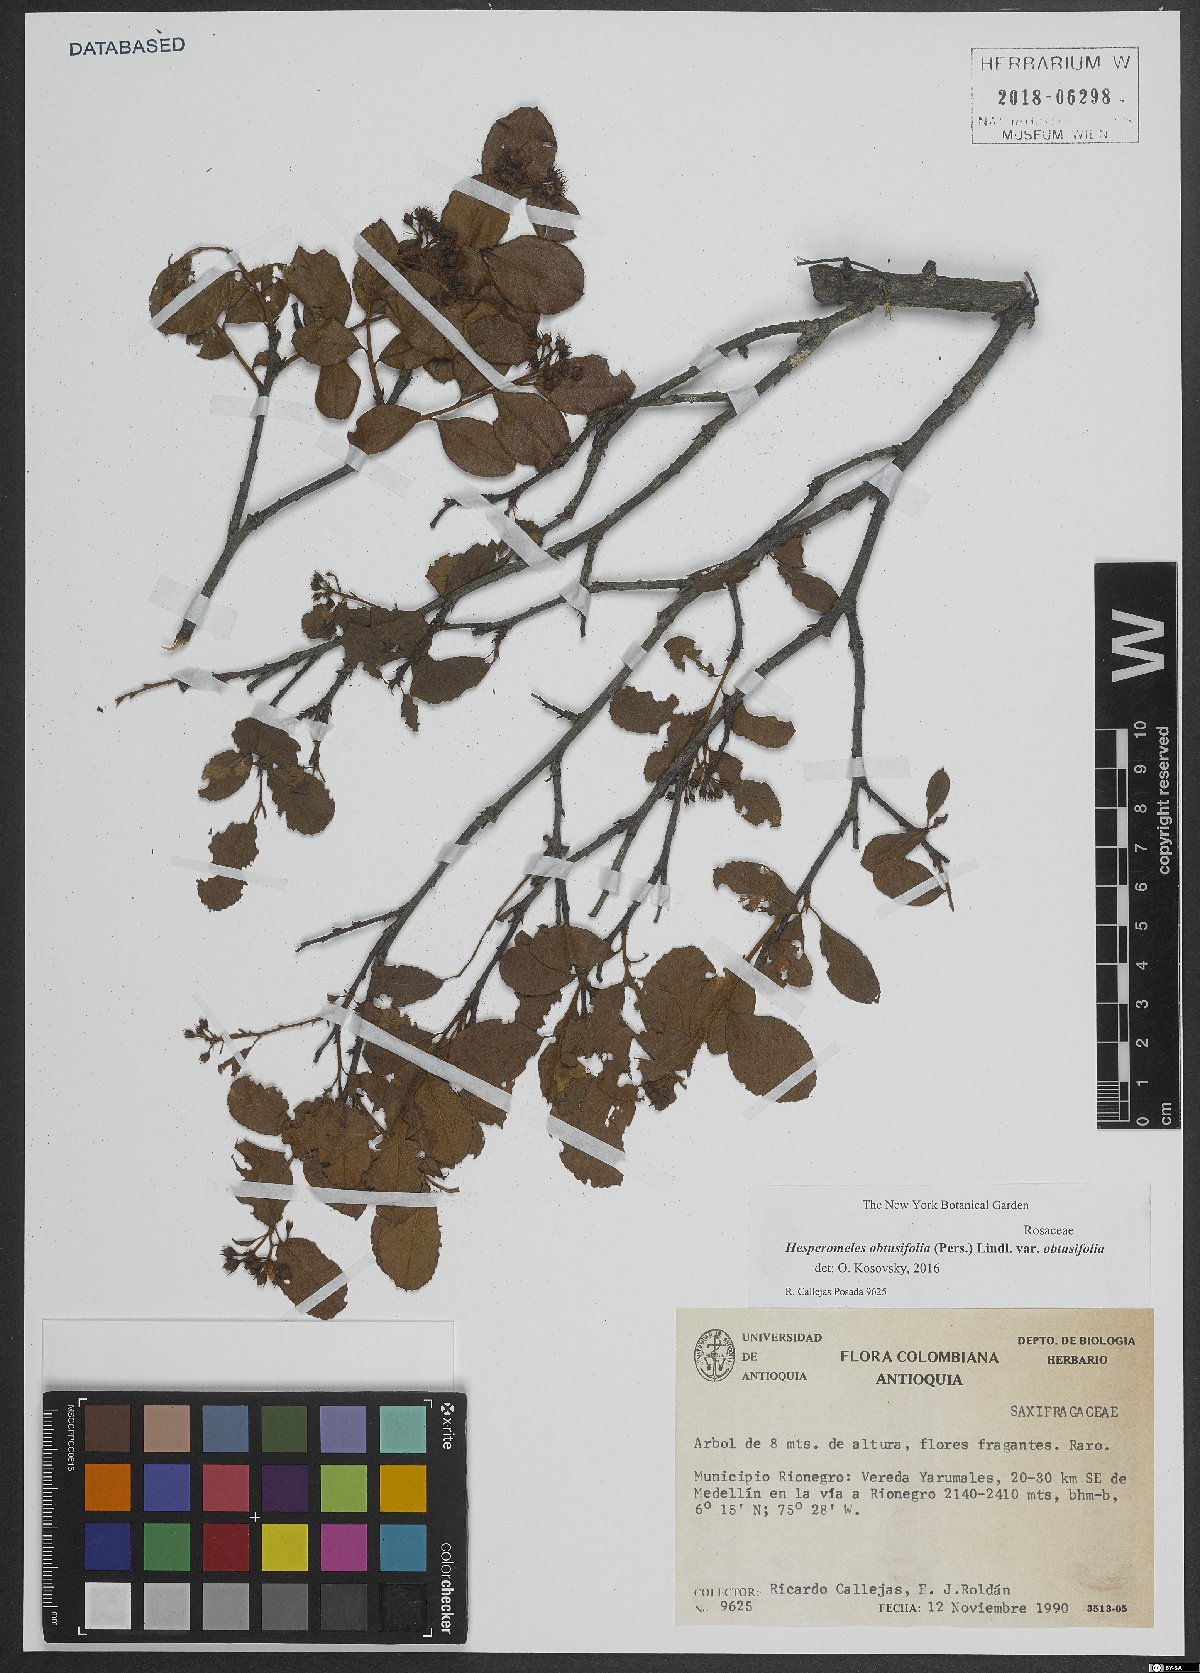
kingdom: Plantae
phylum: Tracheophyta
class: Magnoliopsida
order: Rosales
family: Rosaceae
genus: Hesperomeles
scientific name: Hesperomeles obtusifolia
